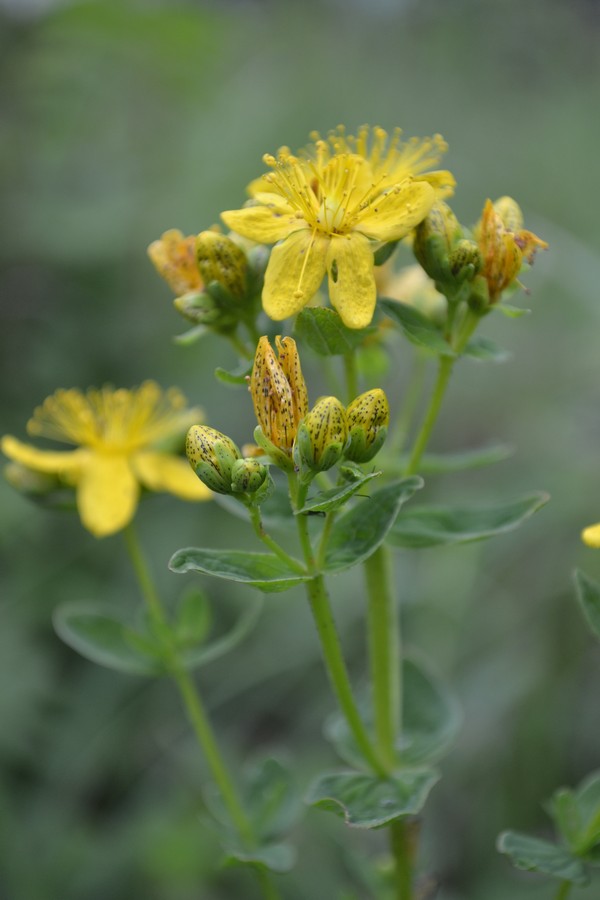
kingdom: Plantae
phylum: Tracheophyta
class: Magnoliopsida
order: Malpighiales
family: Hypericaceae
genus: Hypericum
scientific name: Hypericum perforatum
